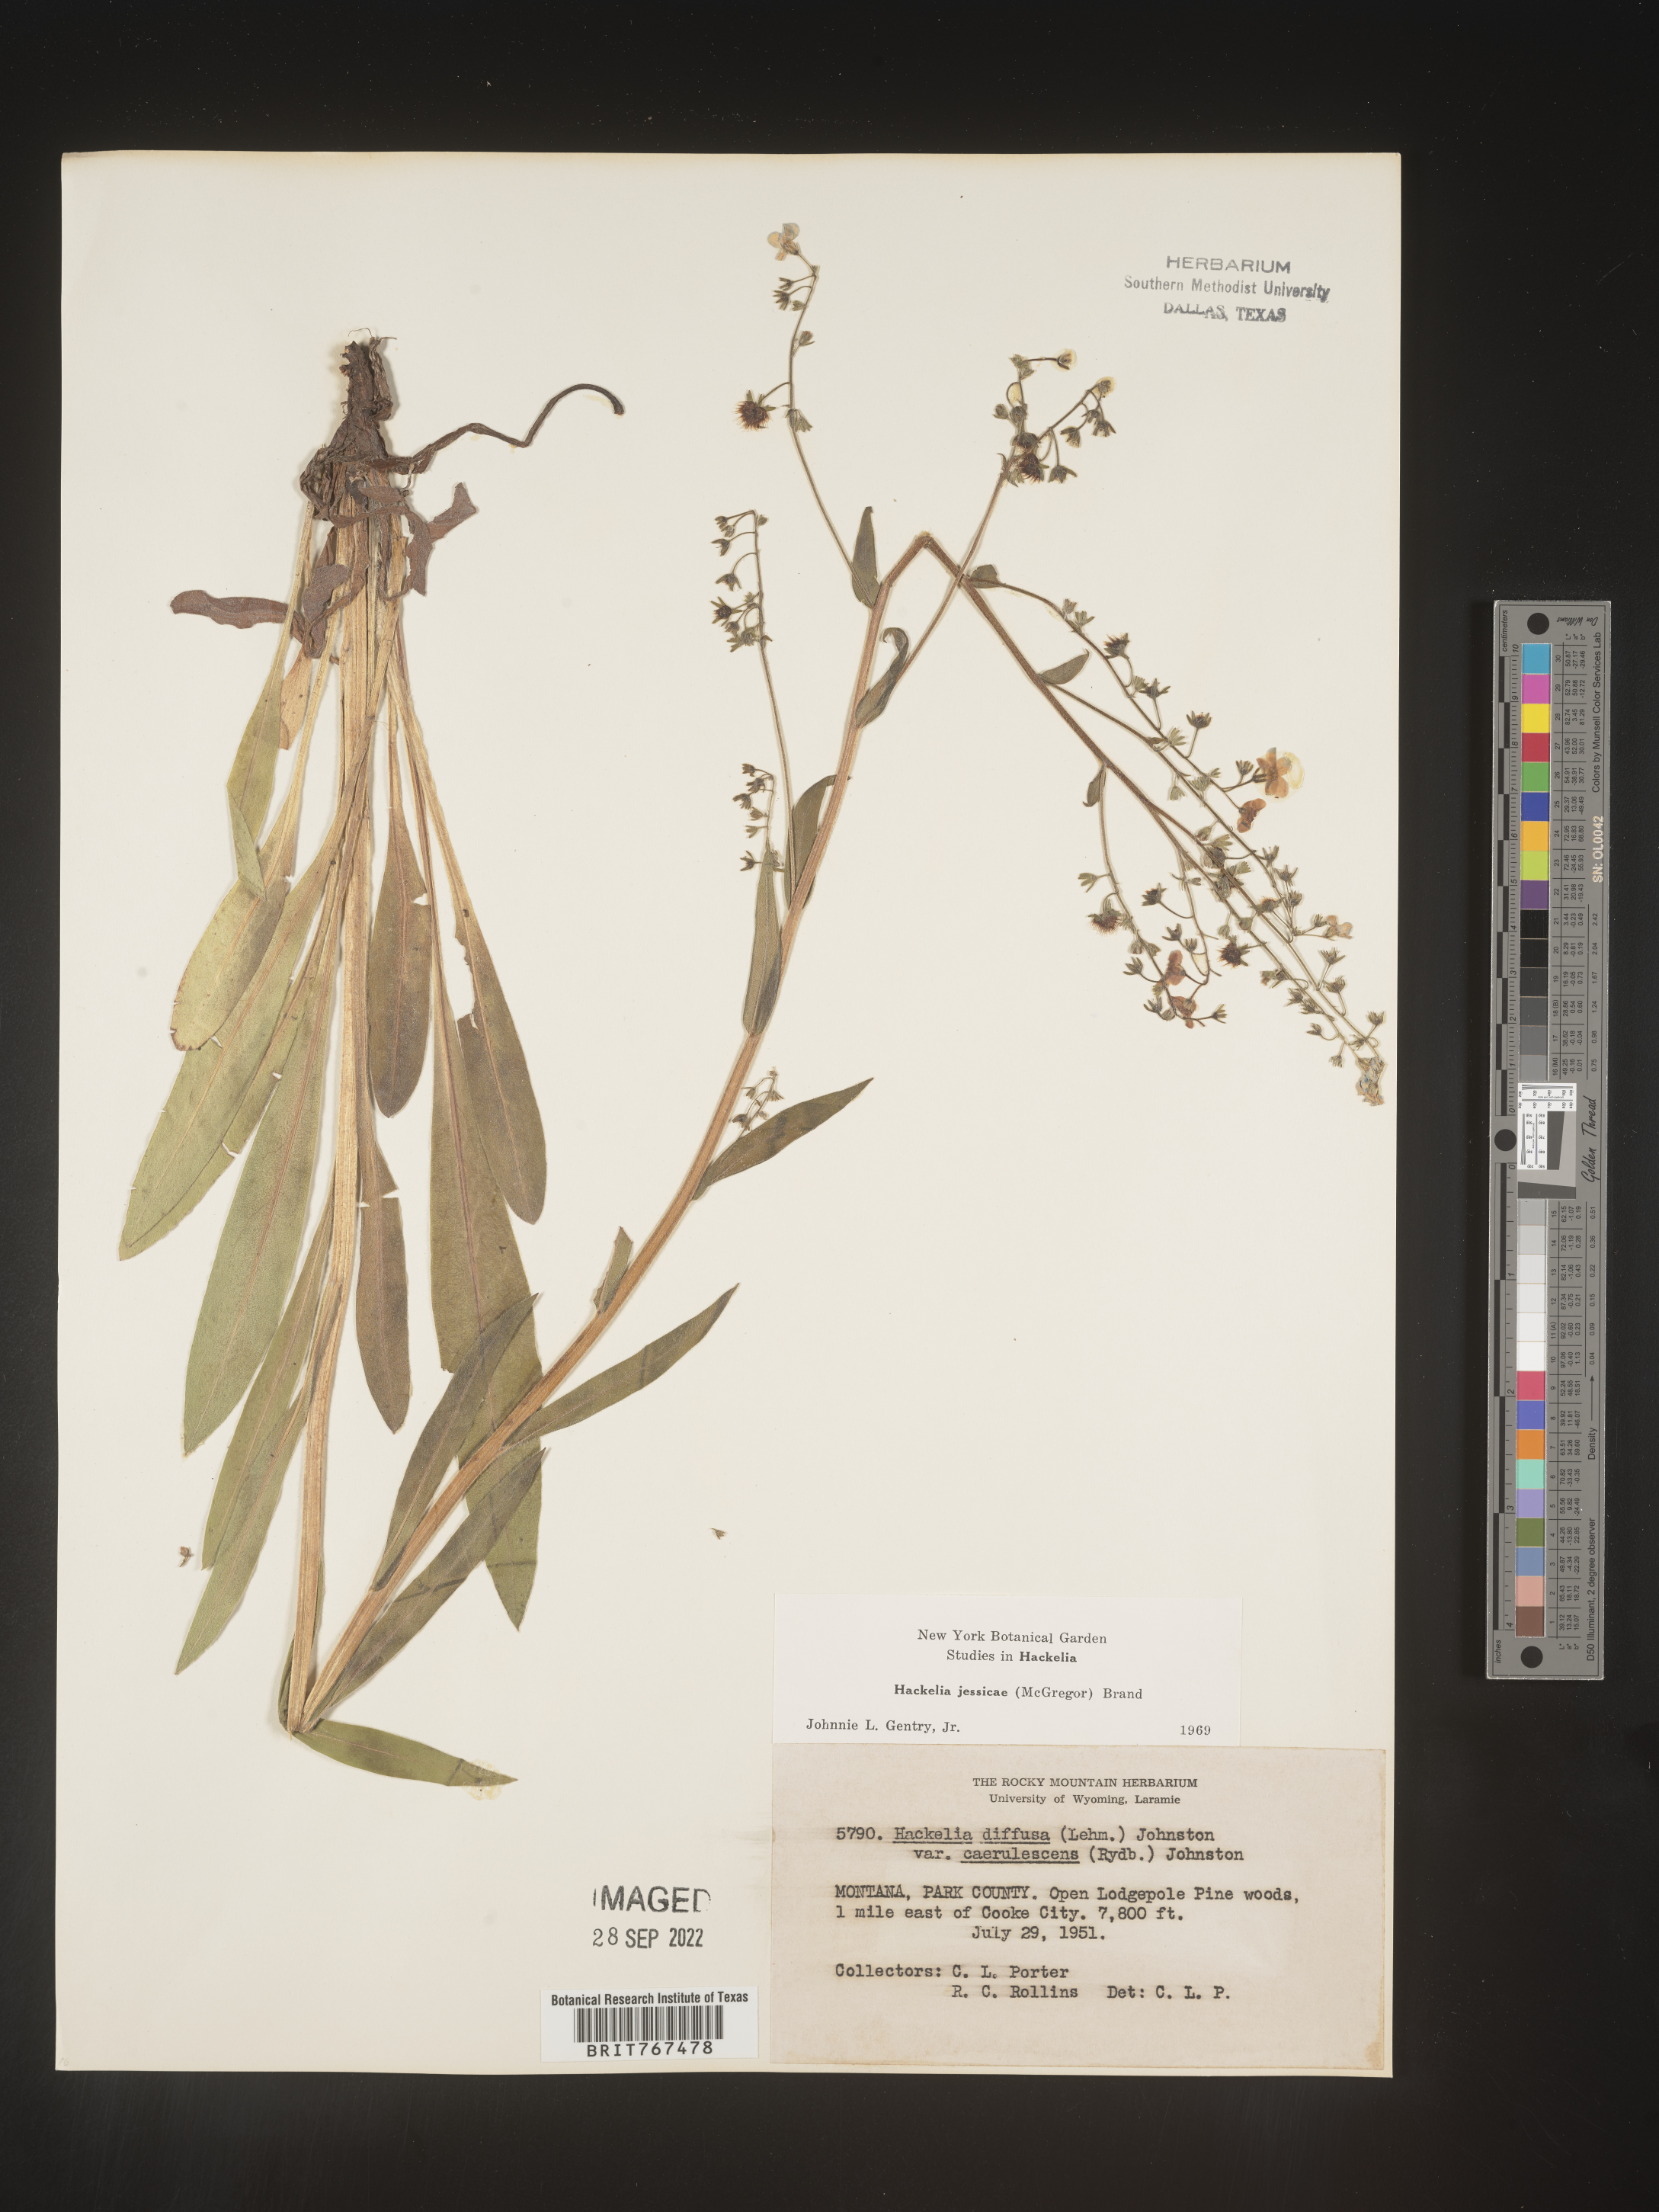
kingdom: Plantae
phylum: Tracheophyta
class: Magnoliopsida
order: Boraginales
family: Boraginaceae
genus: Hackelia
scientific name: Hackelia micrantha
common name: Meadow stickseed
